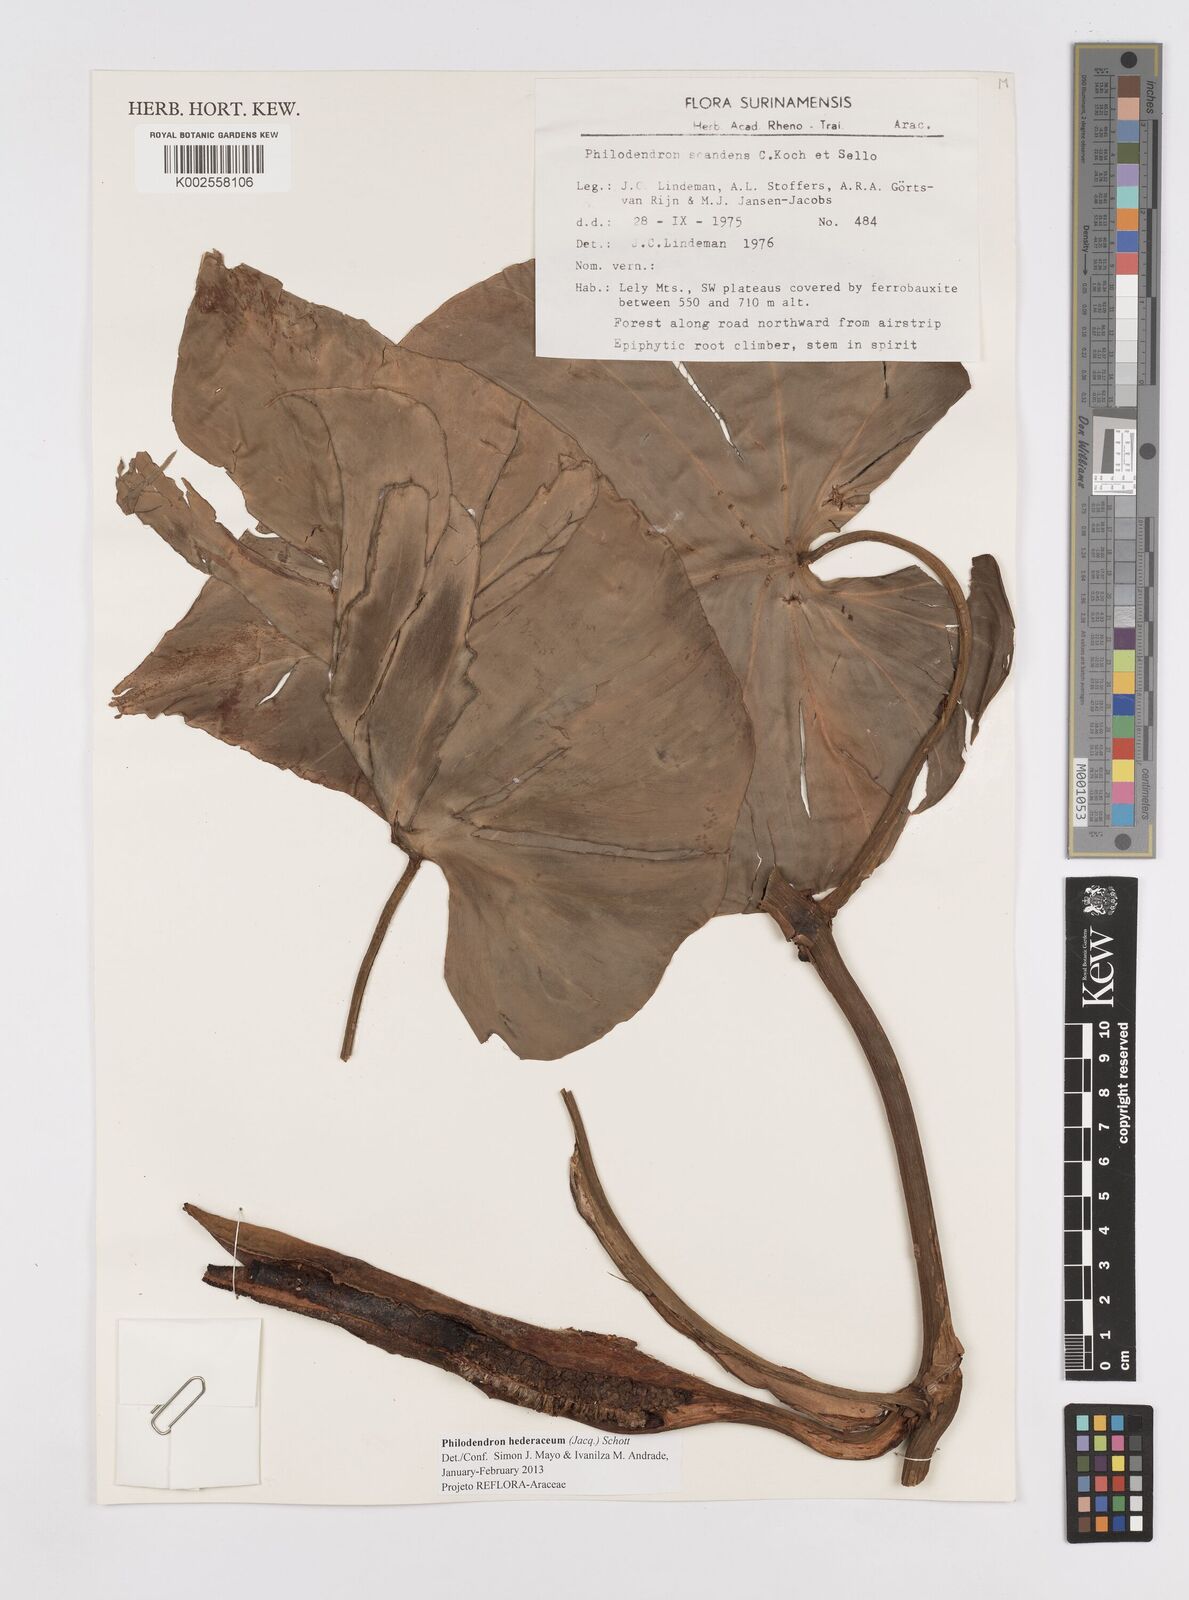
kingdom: Plantae
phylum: Tracheophyta
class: Liliopsida
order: Alismatales
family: Araceae
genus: Philodendron
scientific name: Philodendron hederaceum
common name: Vilevine
